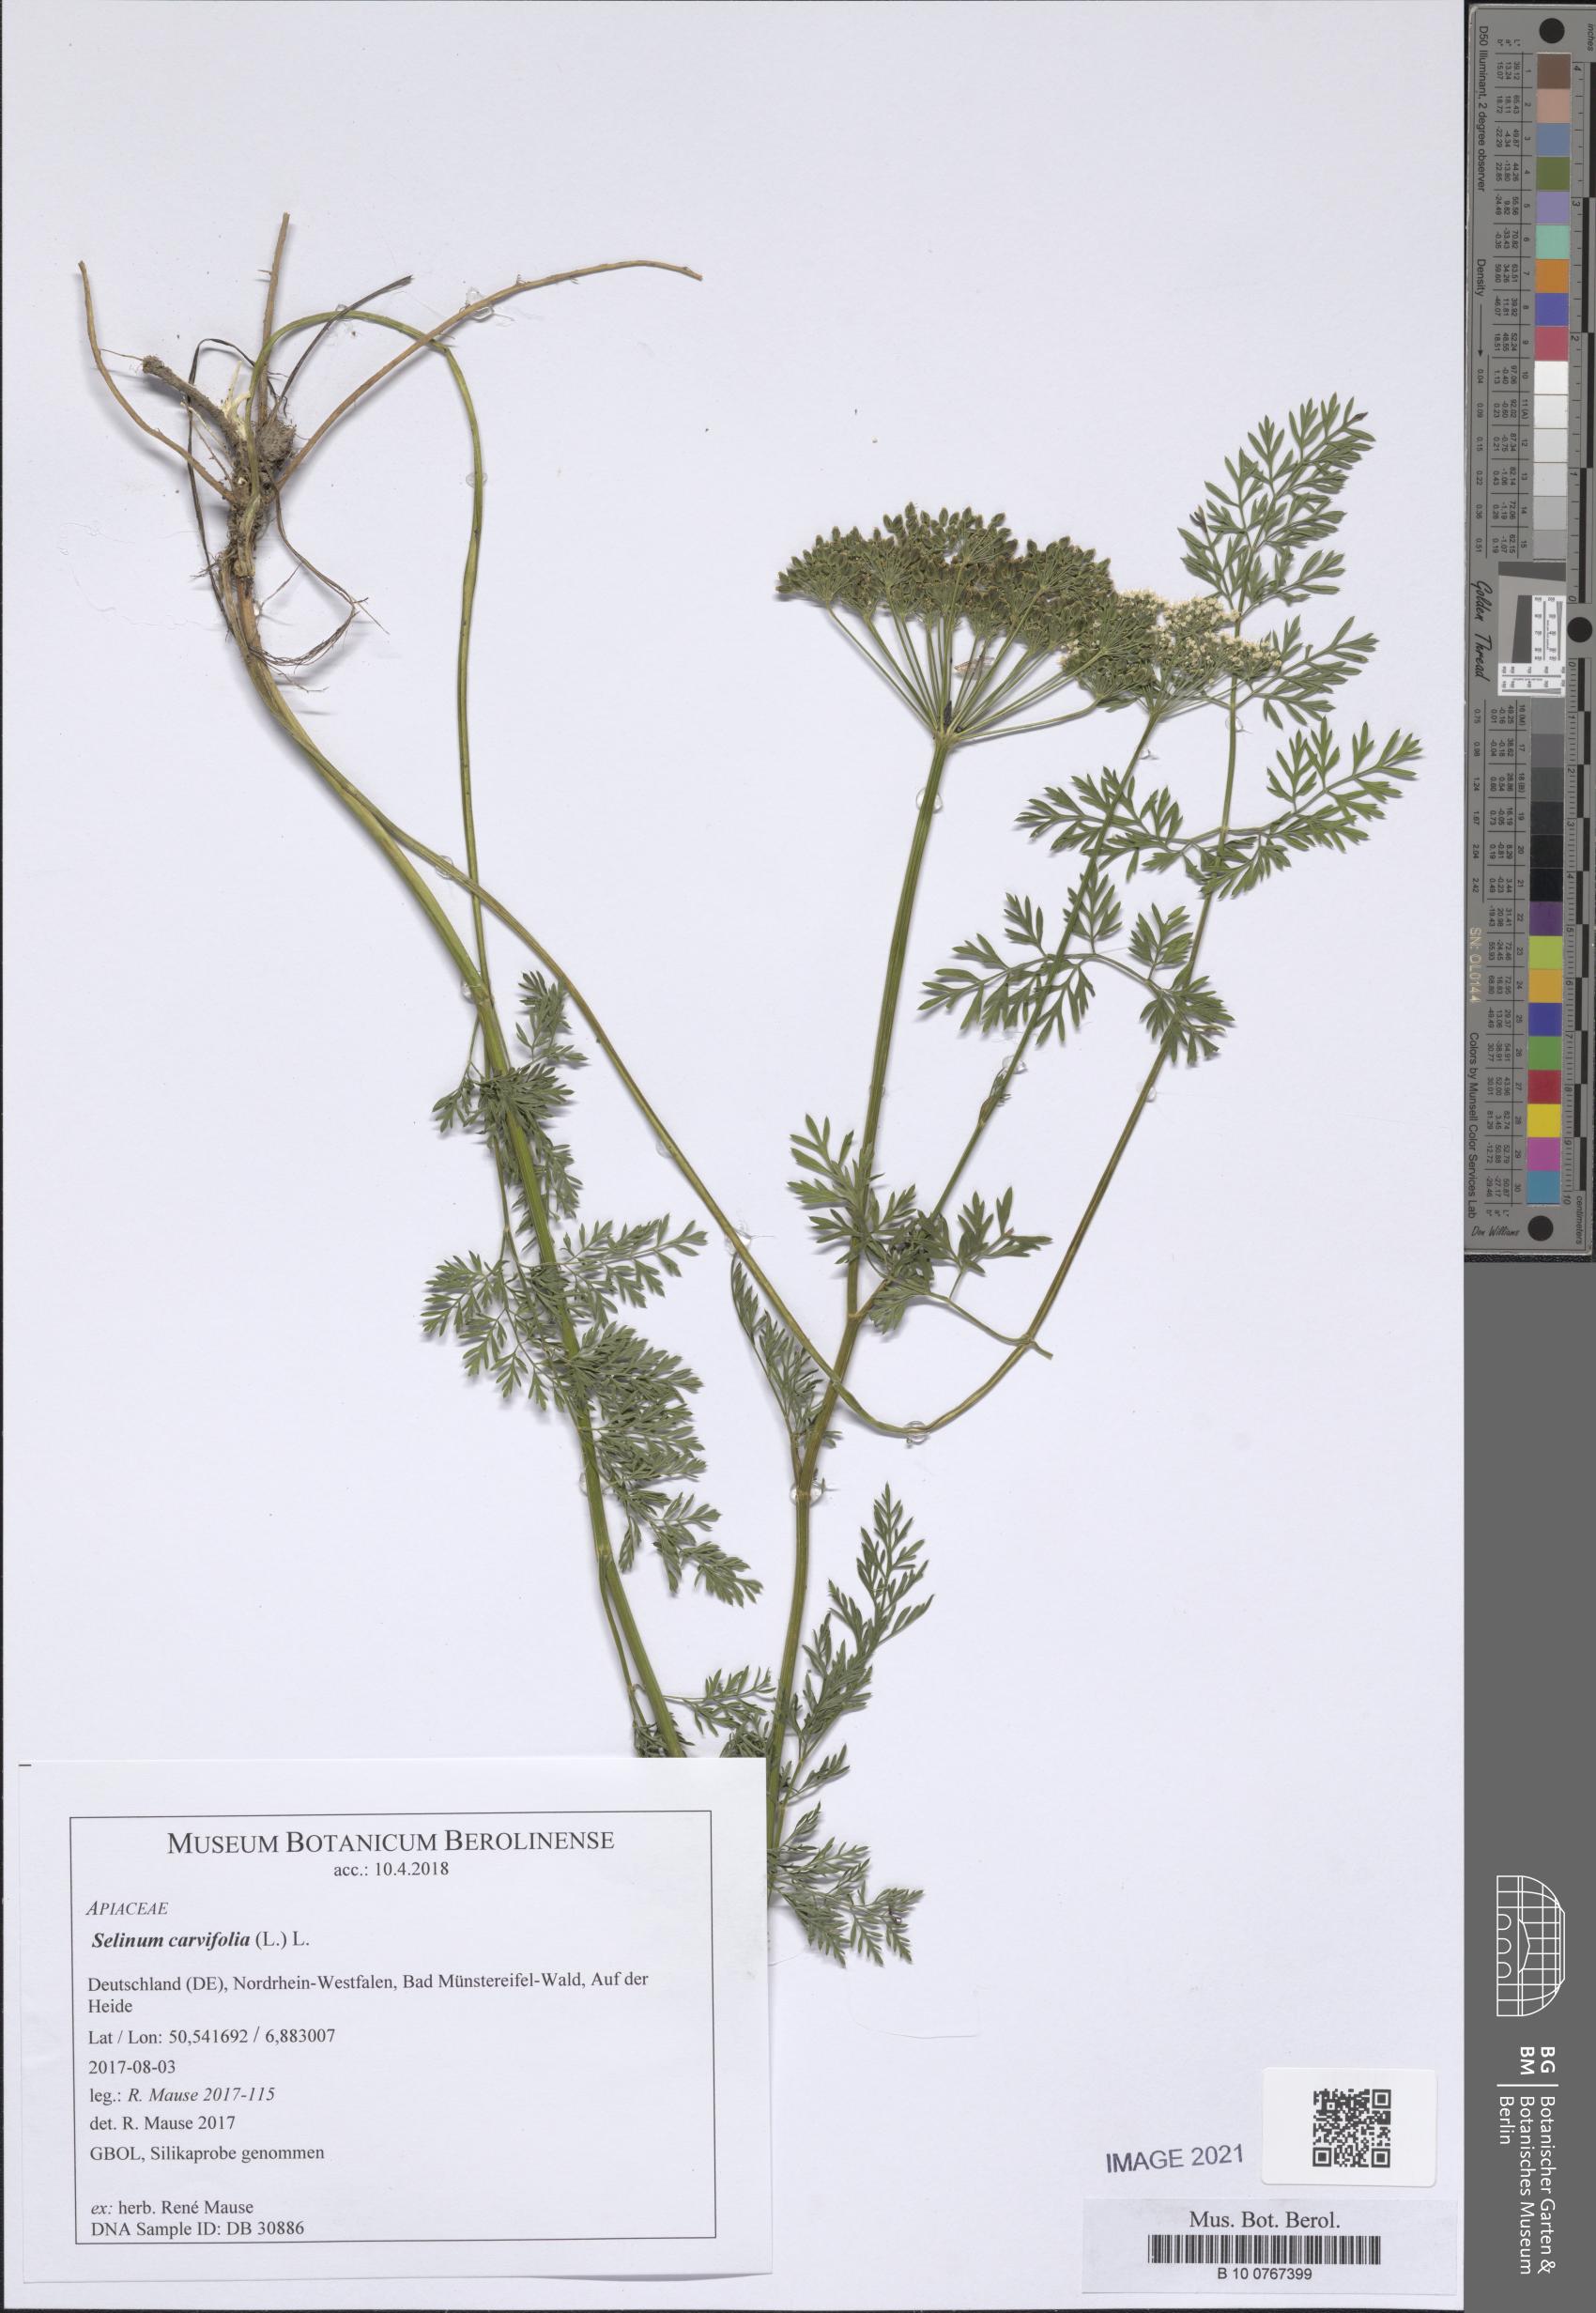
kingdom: Plantae
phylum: Tracheophyta
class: Magnoliopsida
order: Apiales
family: Apiaceae
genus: Selinum
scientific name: Selinum carvifolia
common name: Cambridge milk-parsley
